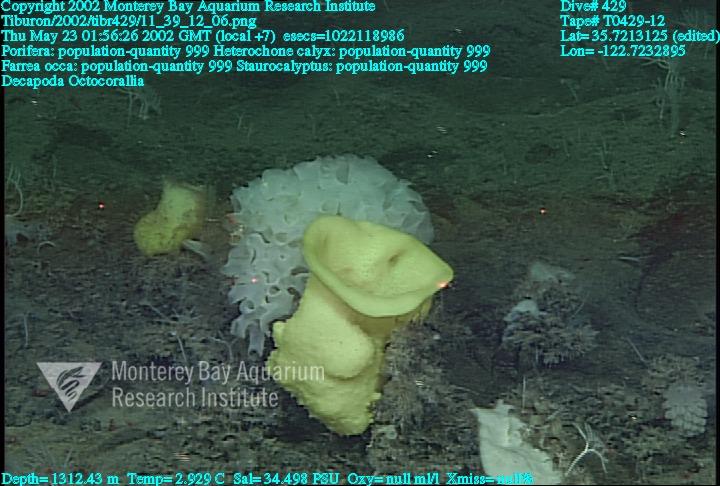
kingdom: Animalia
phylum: Porifera
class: Hexactinellida
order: Sceptrulophora
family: Aphrocallistidae
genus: Heterochone
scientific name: Heterochone calyx
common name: Fingered goblet glass sponge
